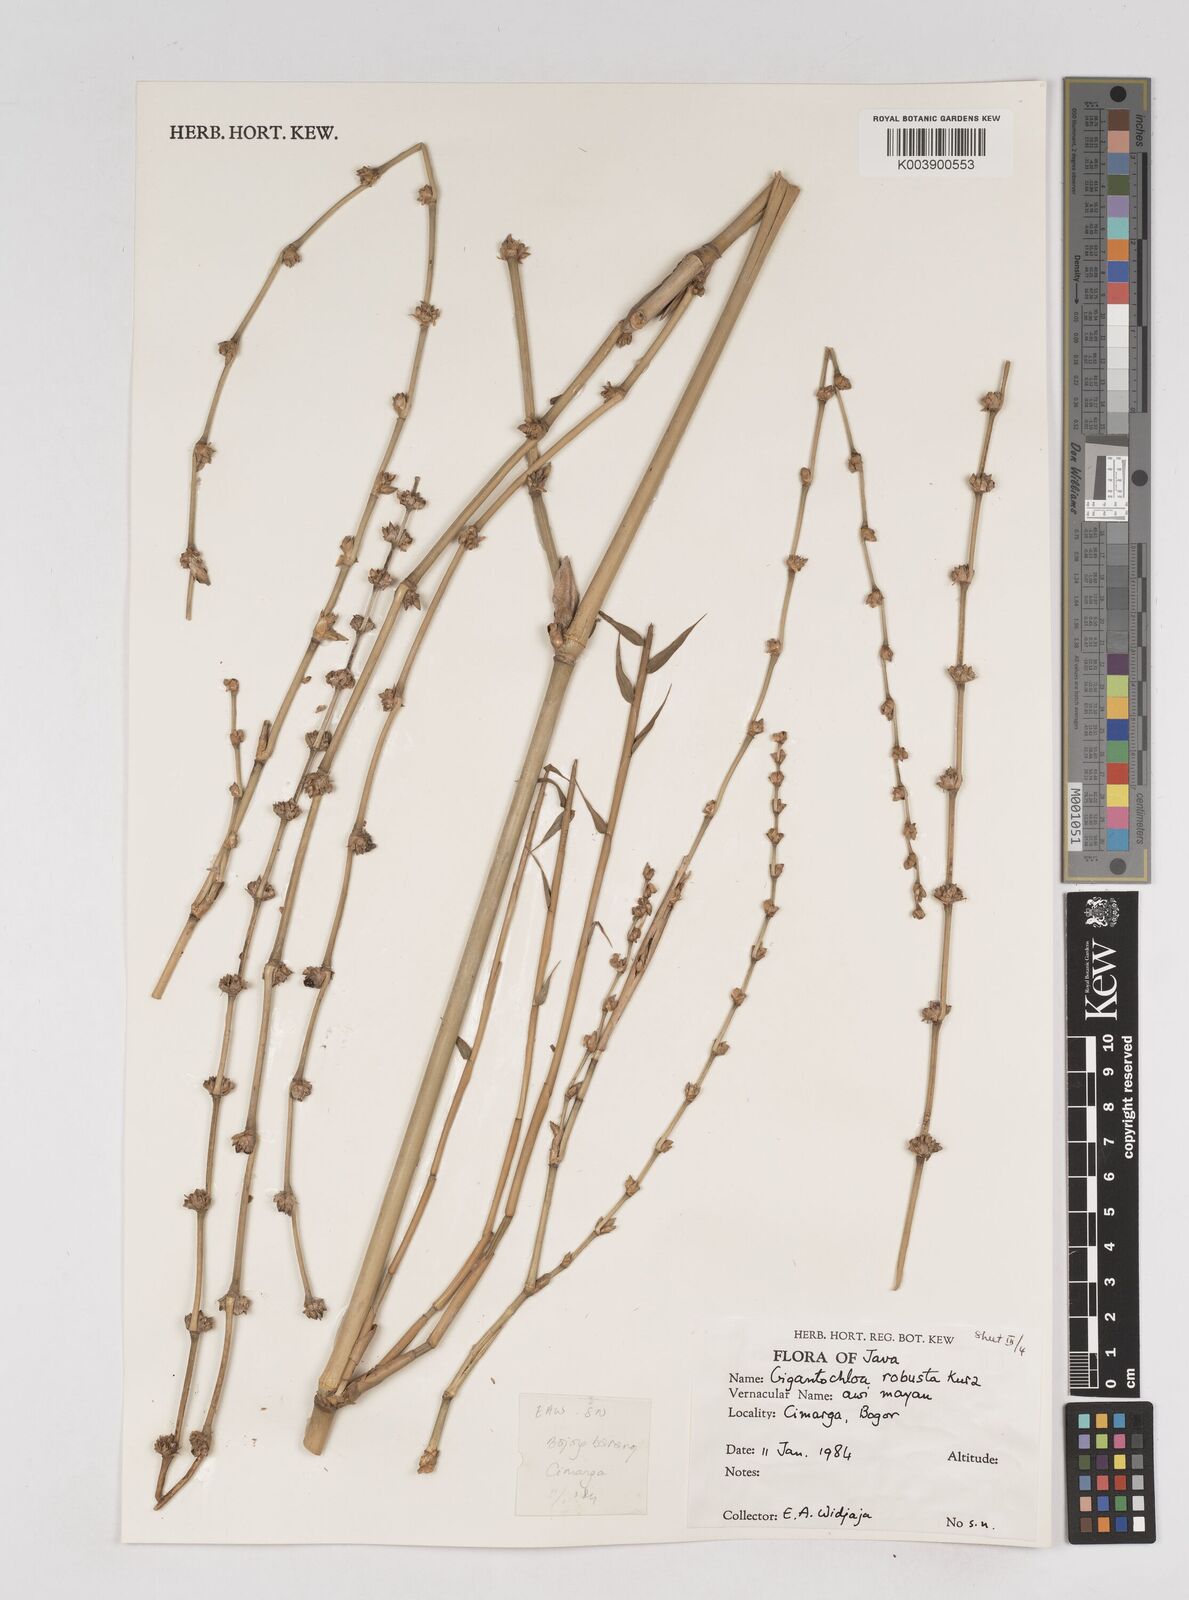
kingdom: Plantae
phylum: Tracheophyta
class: Liliopsida
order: Poales
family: Poaceae
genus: Gigantochloa
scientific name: Gigantochloa robusta
